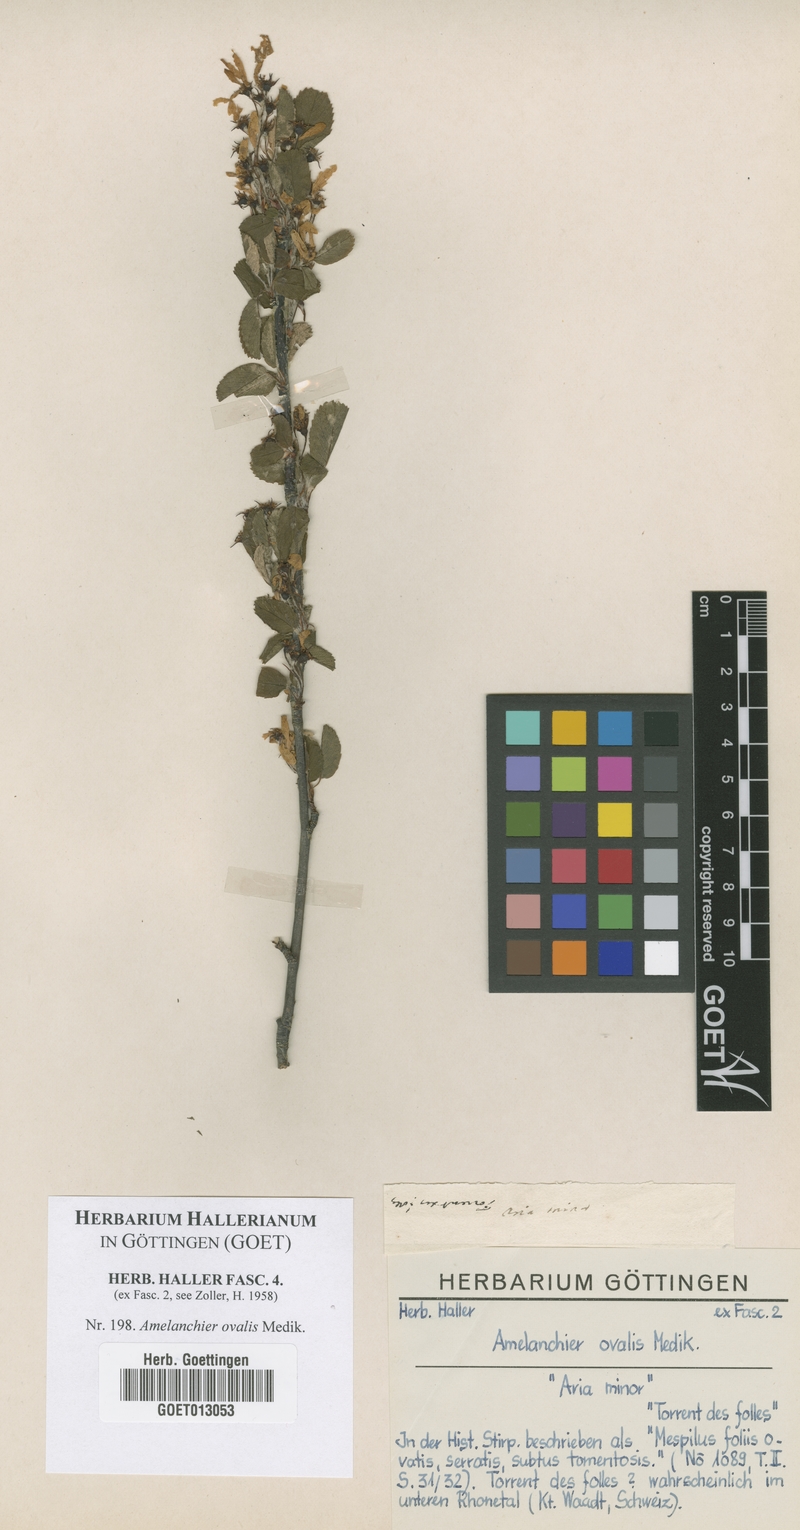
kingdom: Plantae
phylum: Tracheophyta
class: Magnoliopsida
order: Rosales
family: Rosaceae
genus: Amelanchier
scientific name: Amelanchier ovalis
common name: Serviceberry
